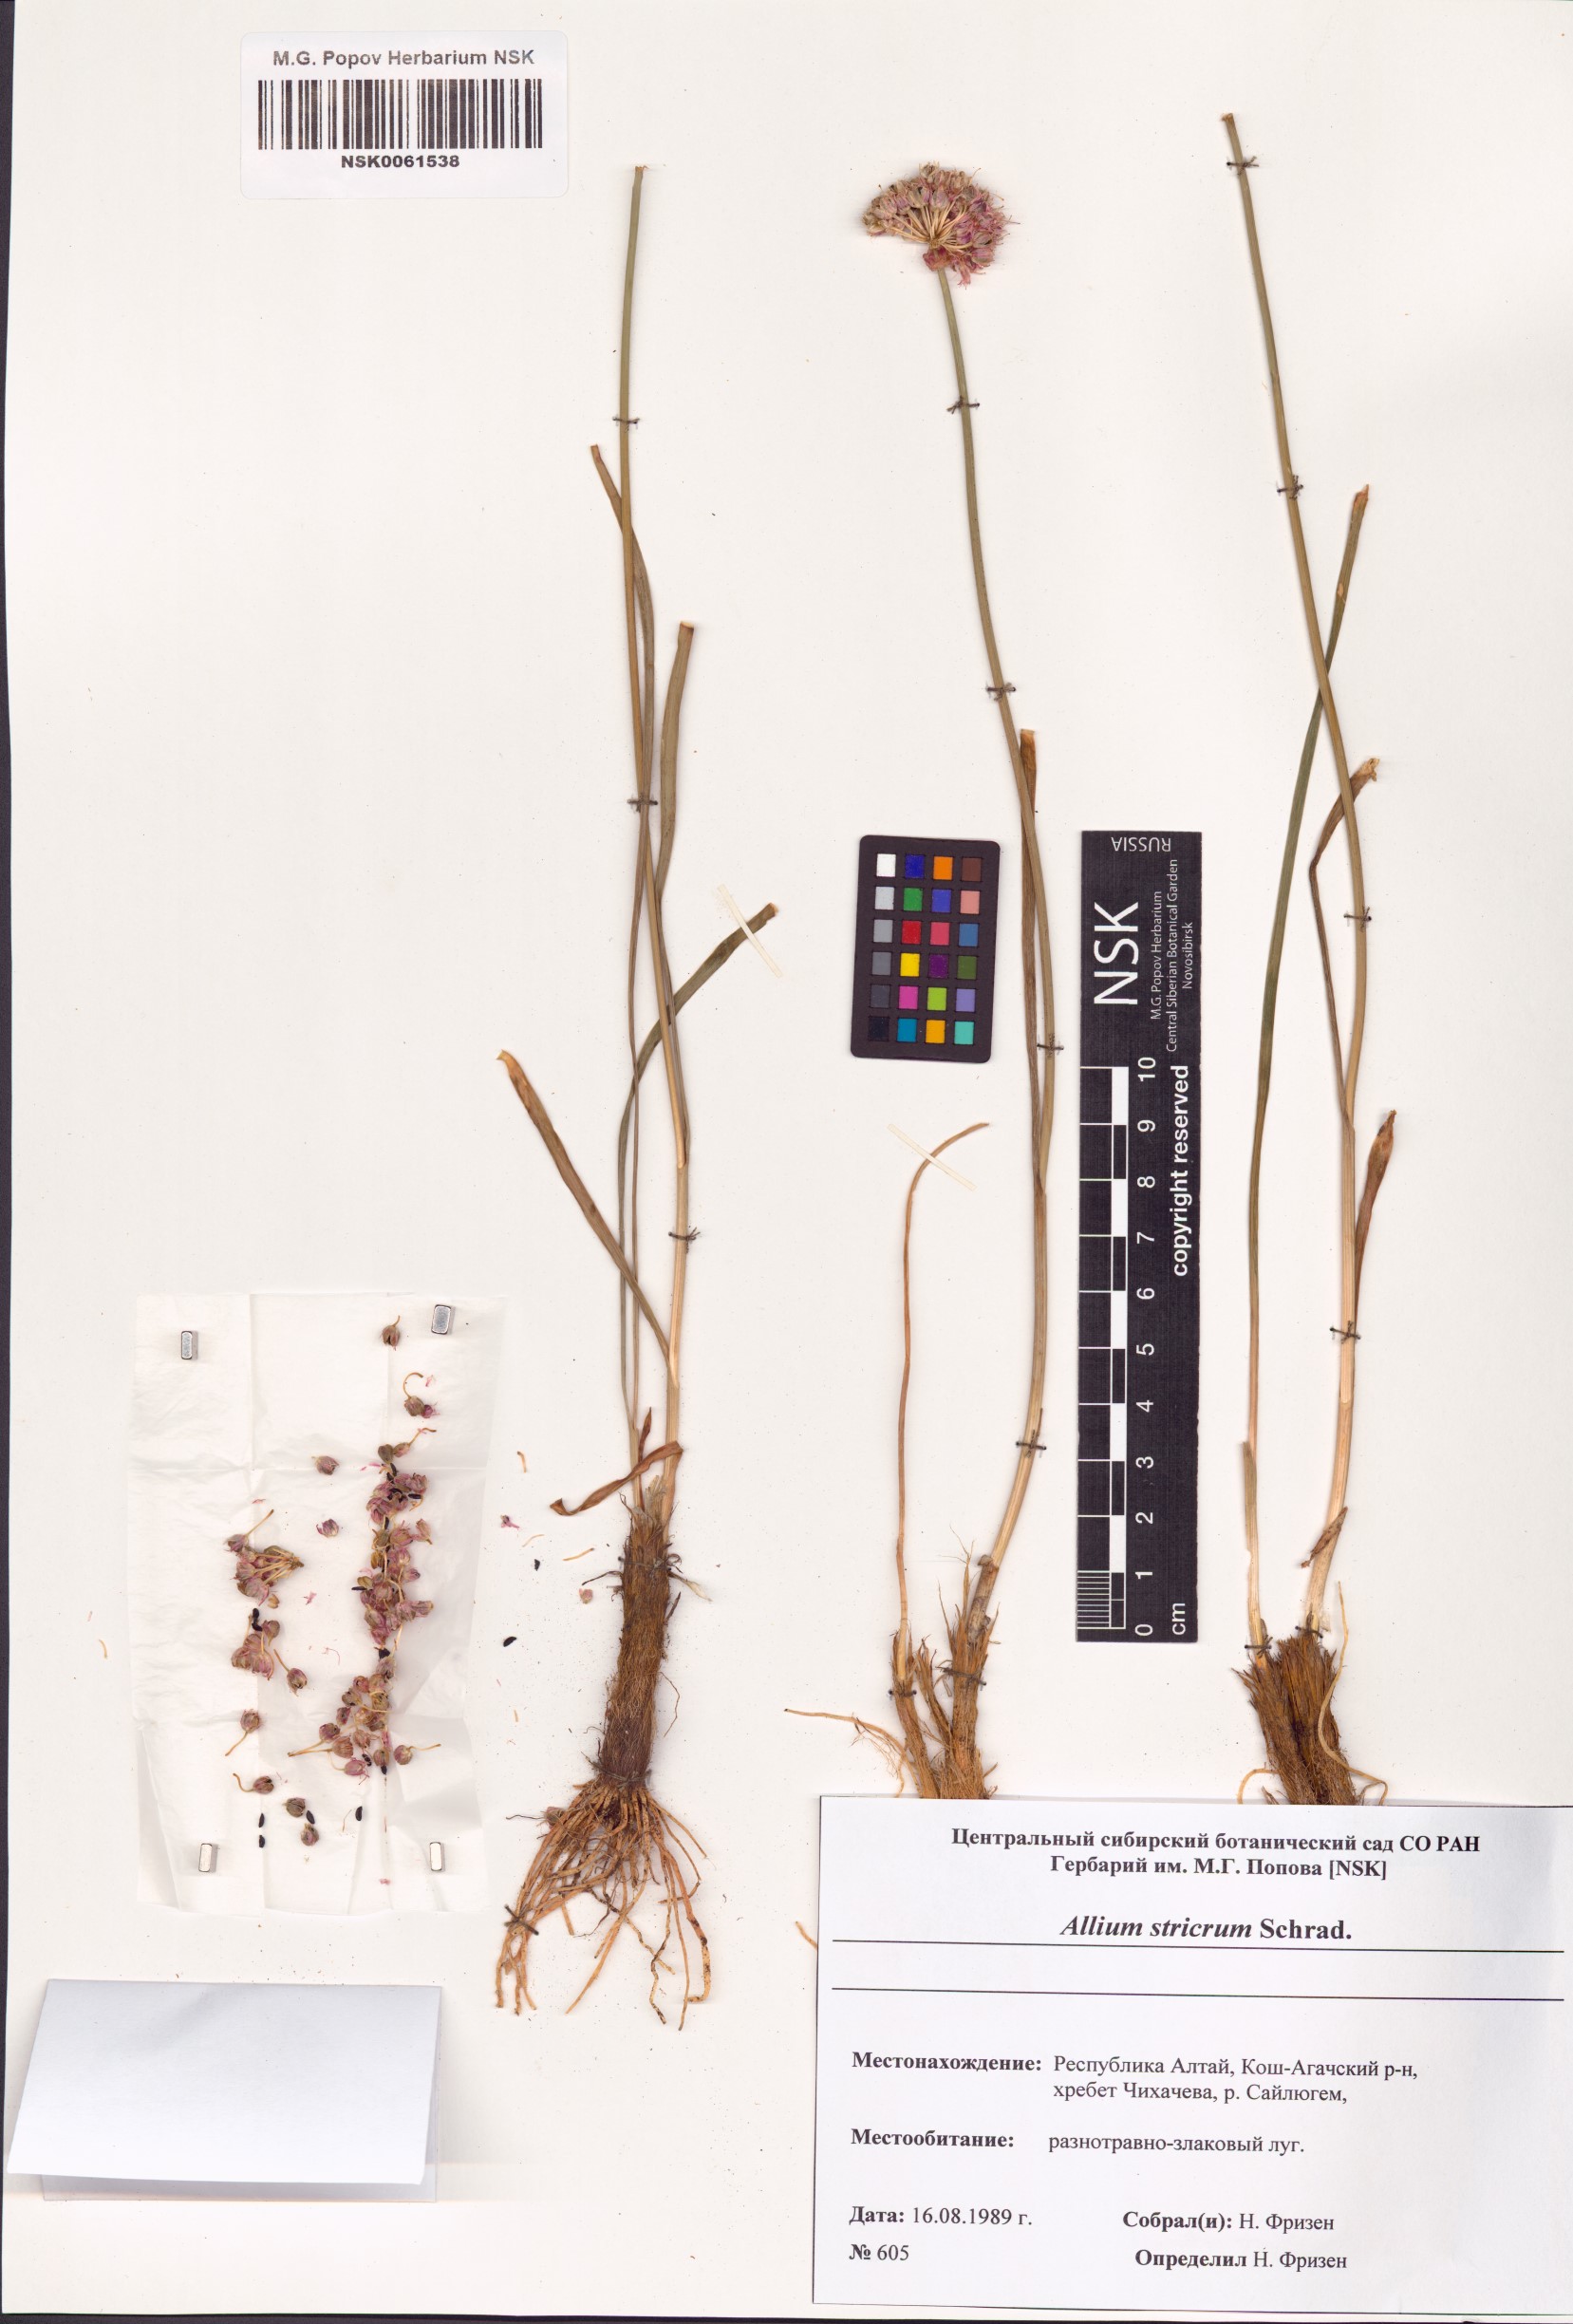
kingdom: Plantae
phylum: Tracheophyta
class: Liliopsida
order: Asparagales
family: Amaryllidaceae
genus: Allium
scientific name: Allium strictum
